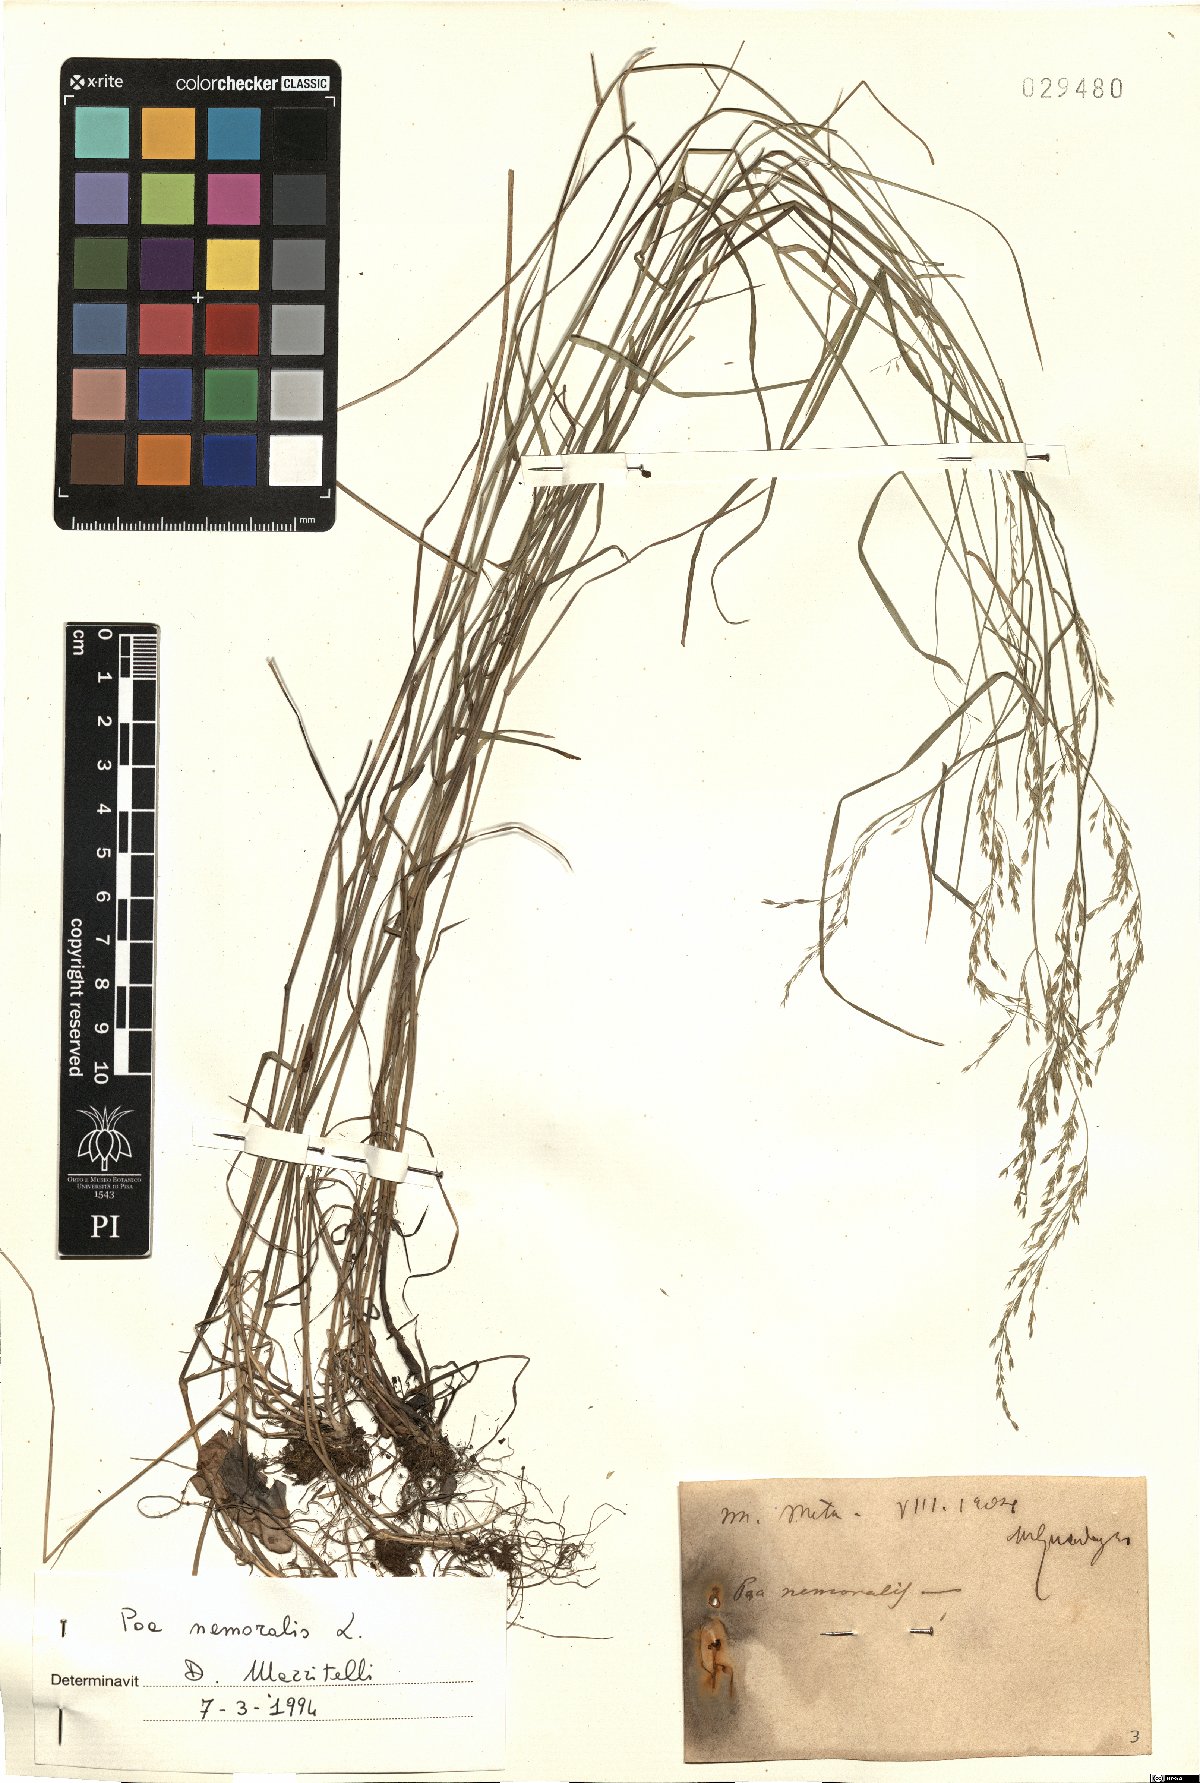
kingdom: Plantae
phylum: Tracheophyta
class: Liliopsida
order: Poales
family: Poaceae
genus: Poa
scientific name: Poa nemoralis
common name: Wood bluegrass
